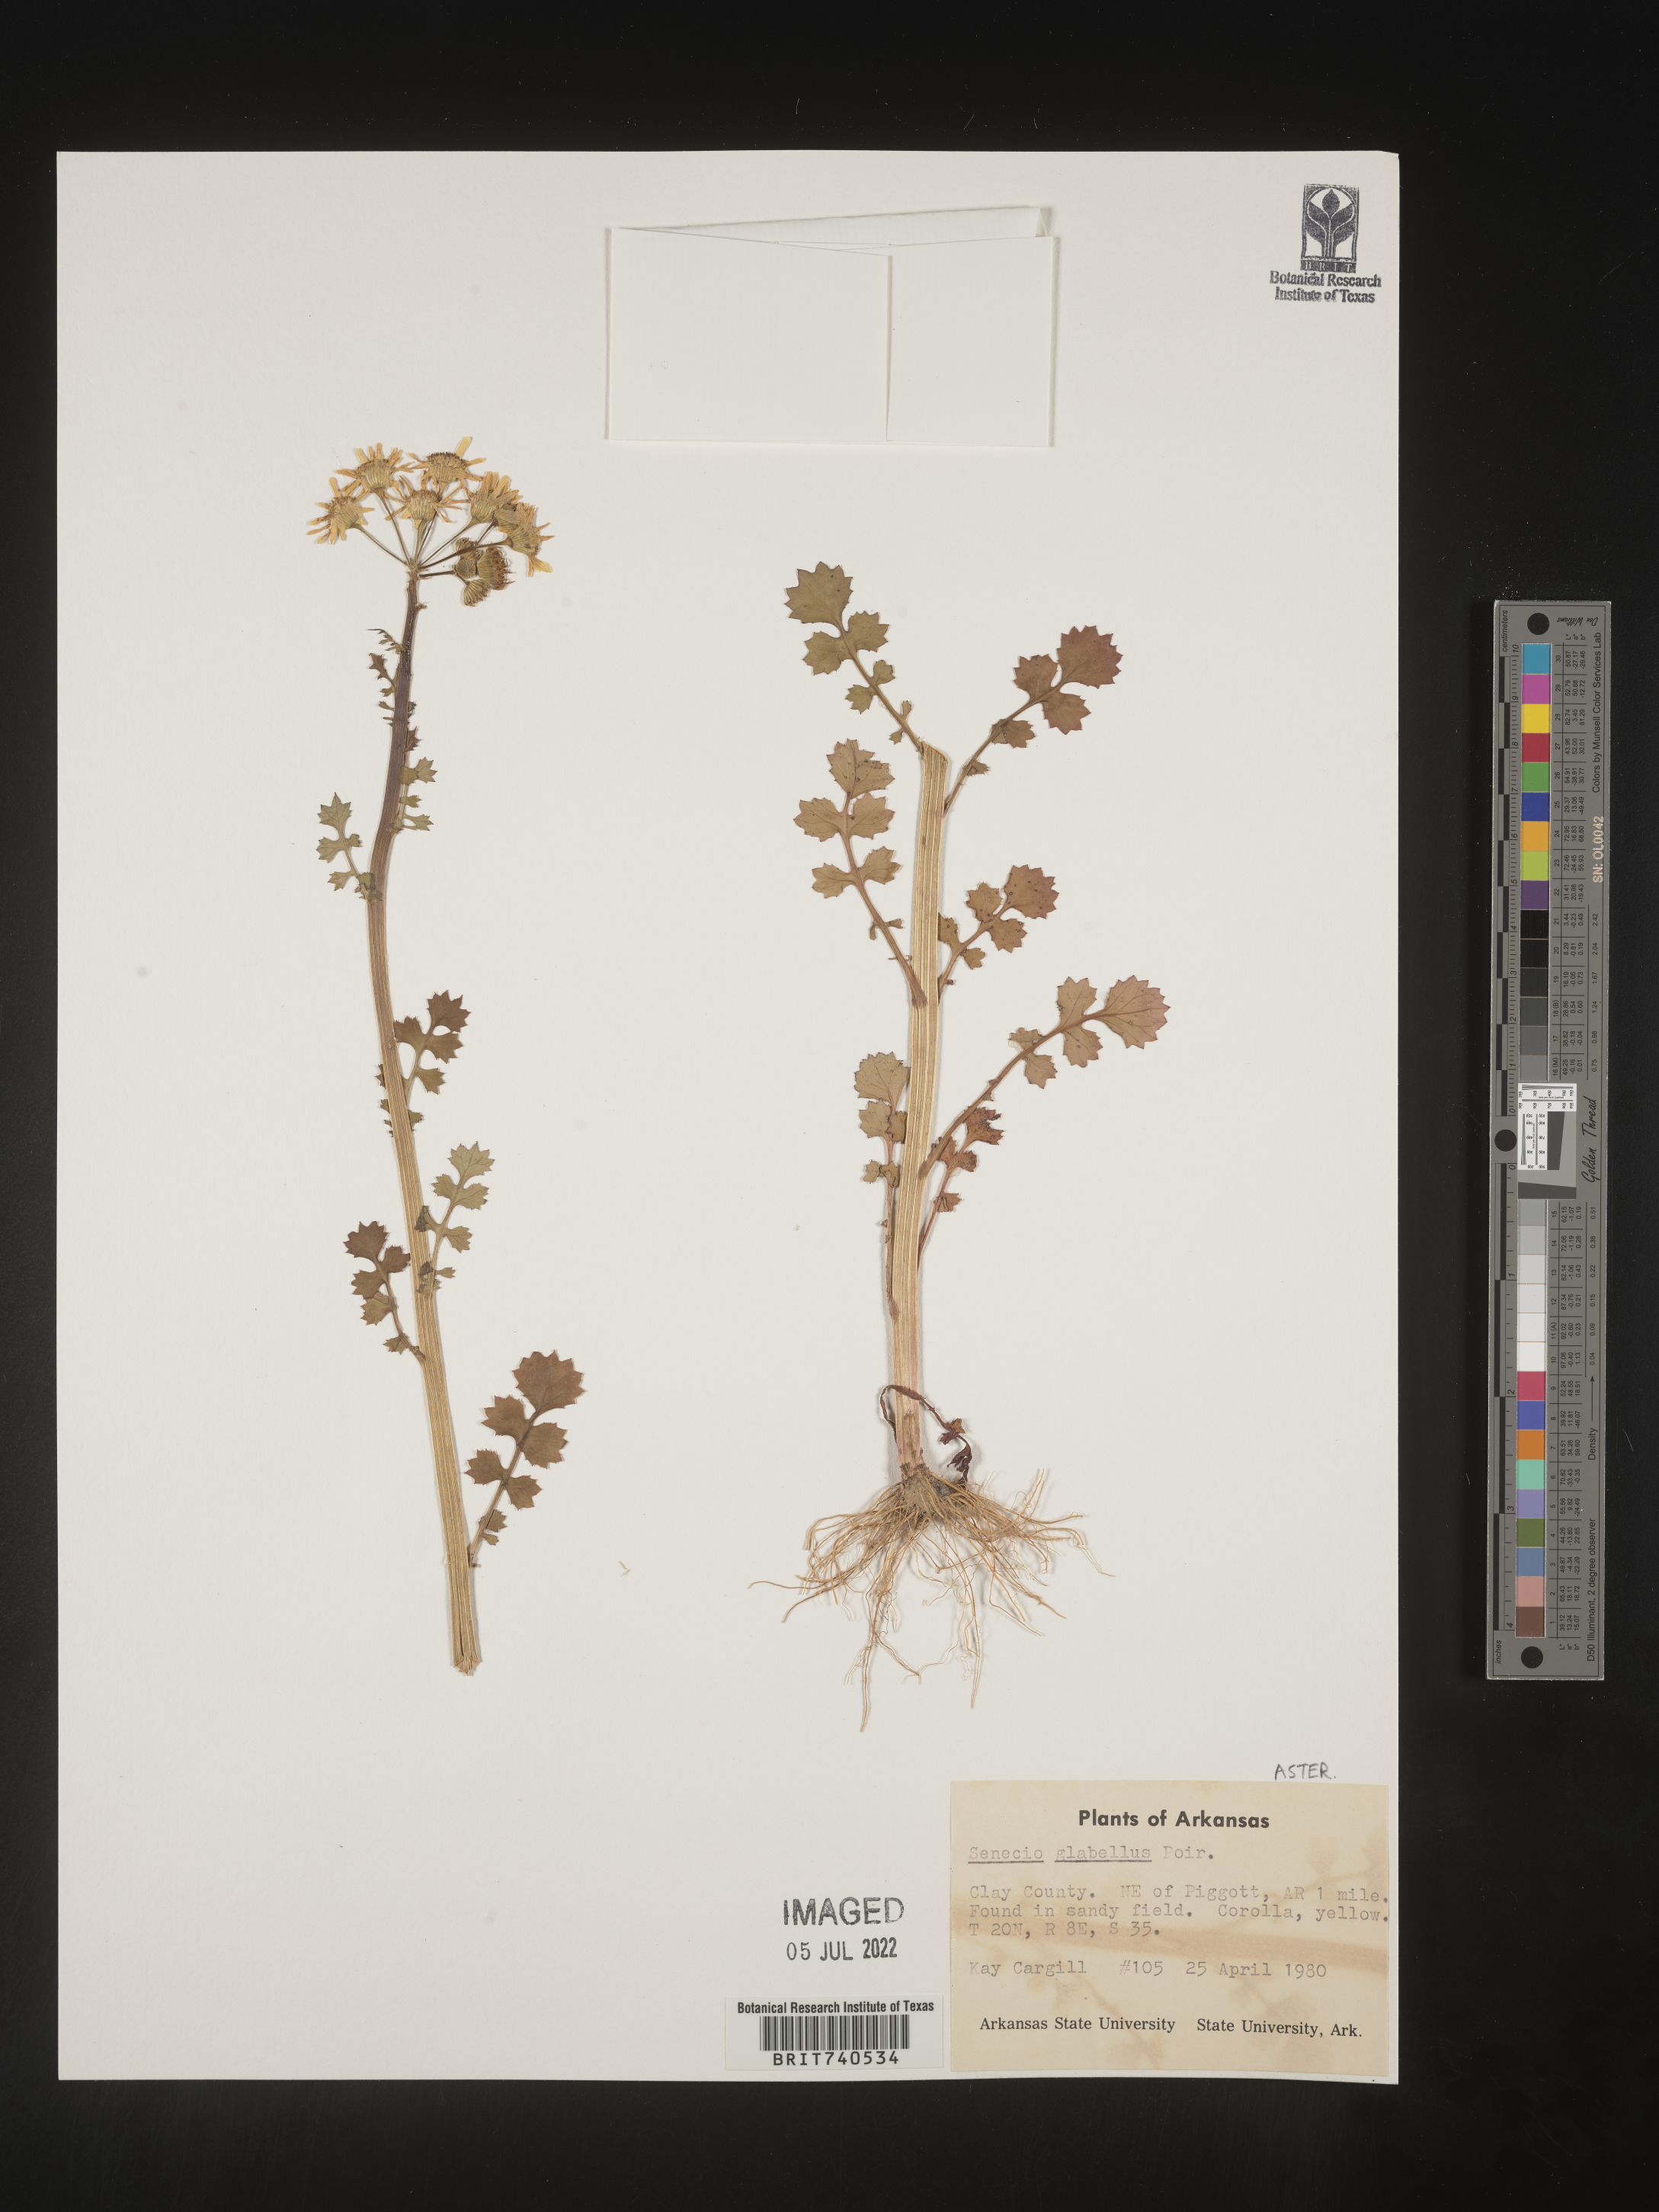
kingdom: Plantae
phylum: Tracheophyta
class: Magnoliopsida
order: Asterales
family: Asteraceae
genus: Tephroseris
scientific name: Tephroseris praticola
